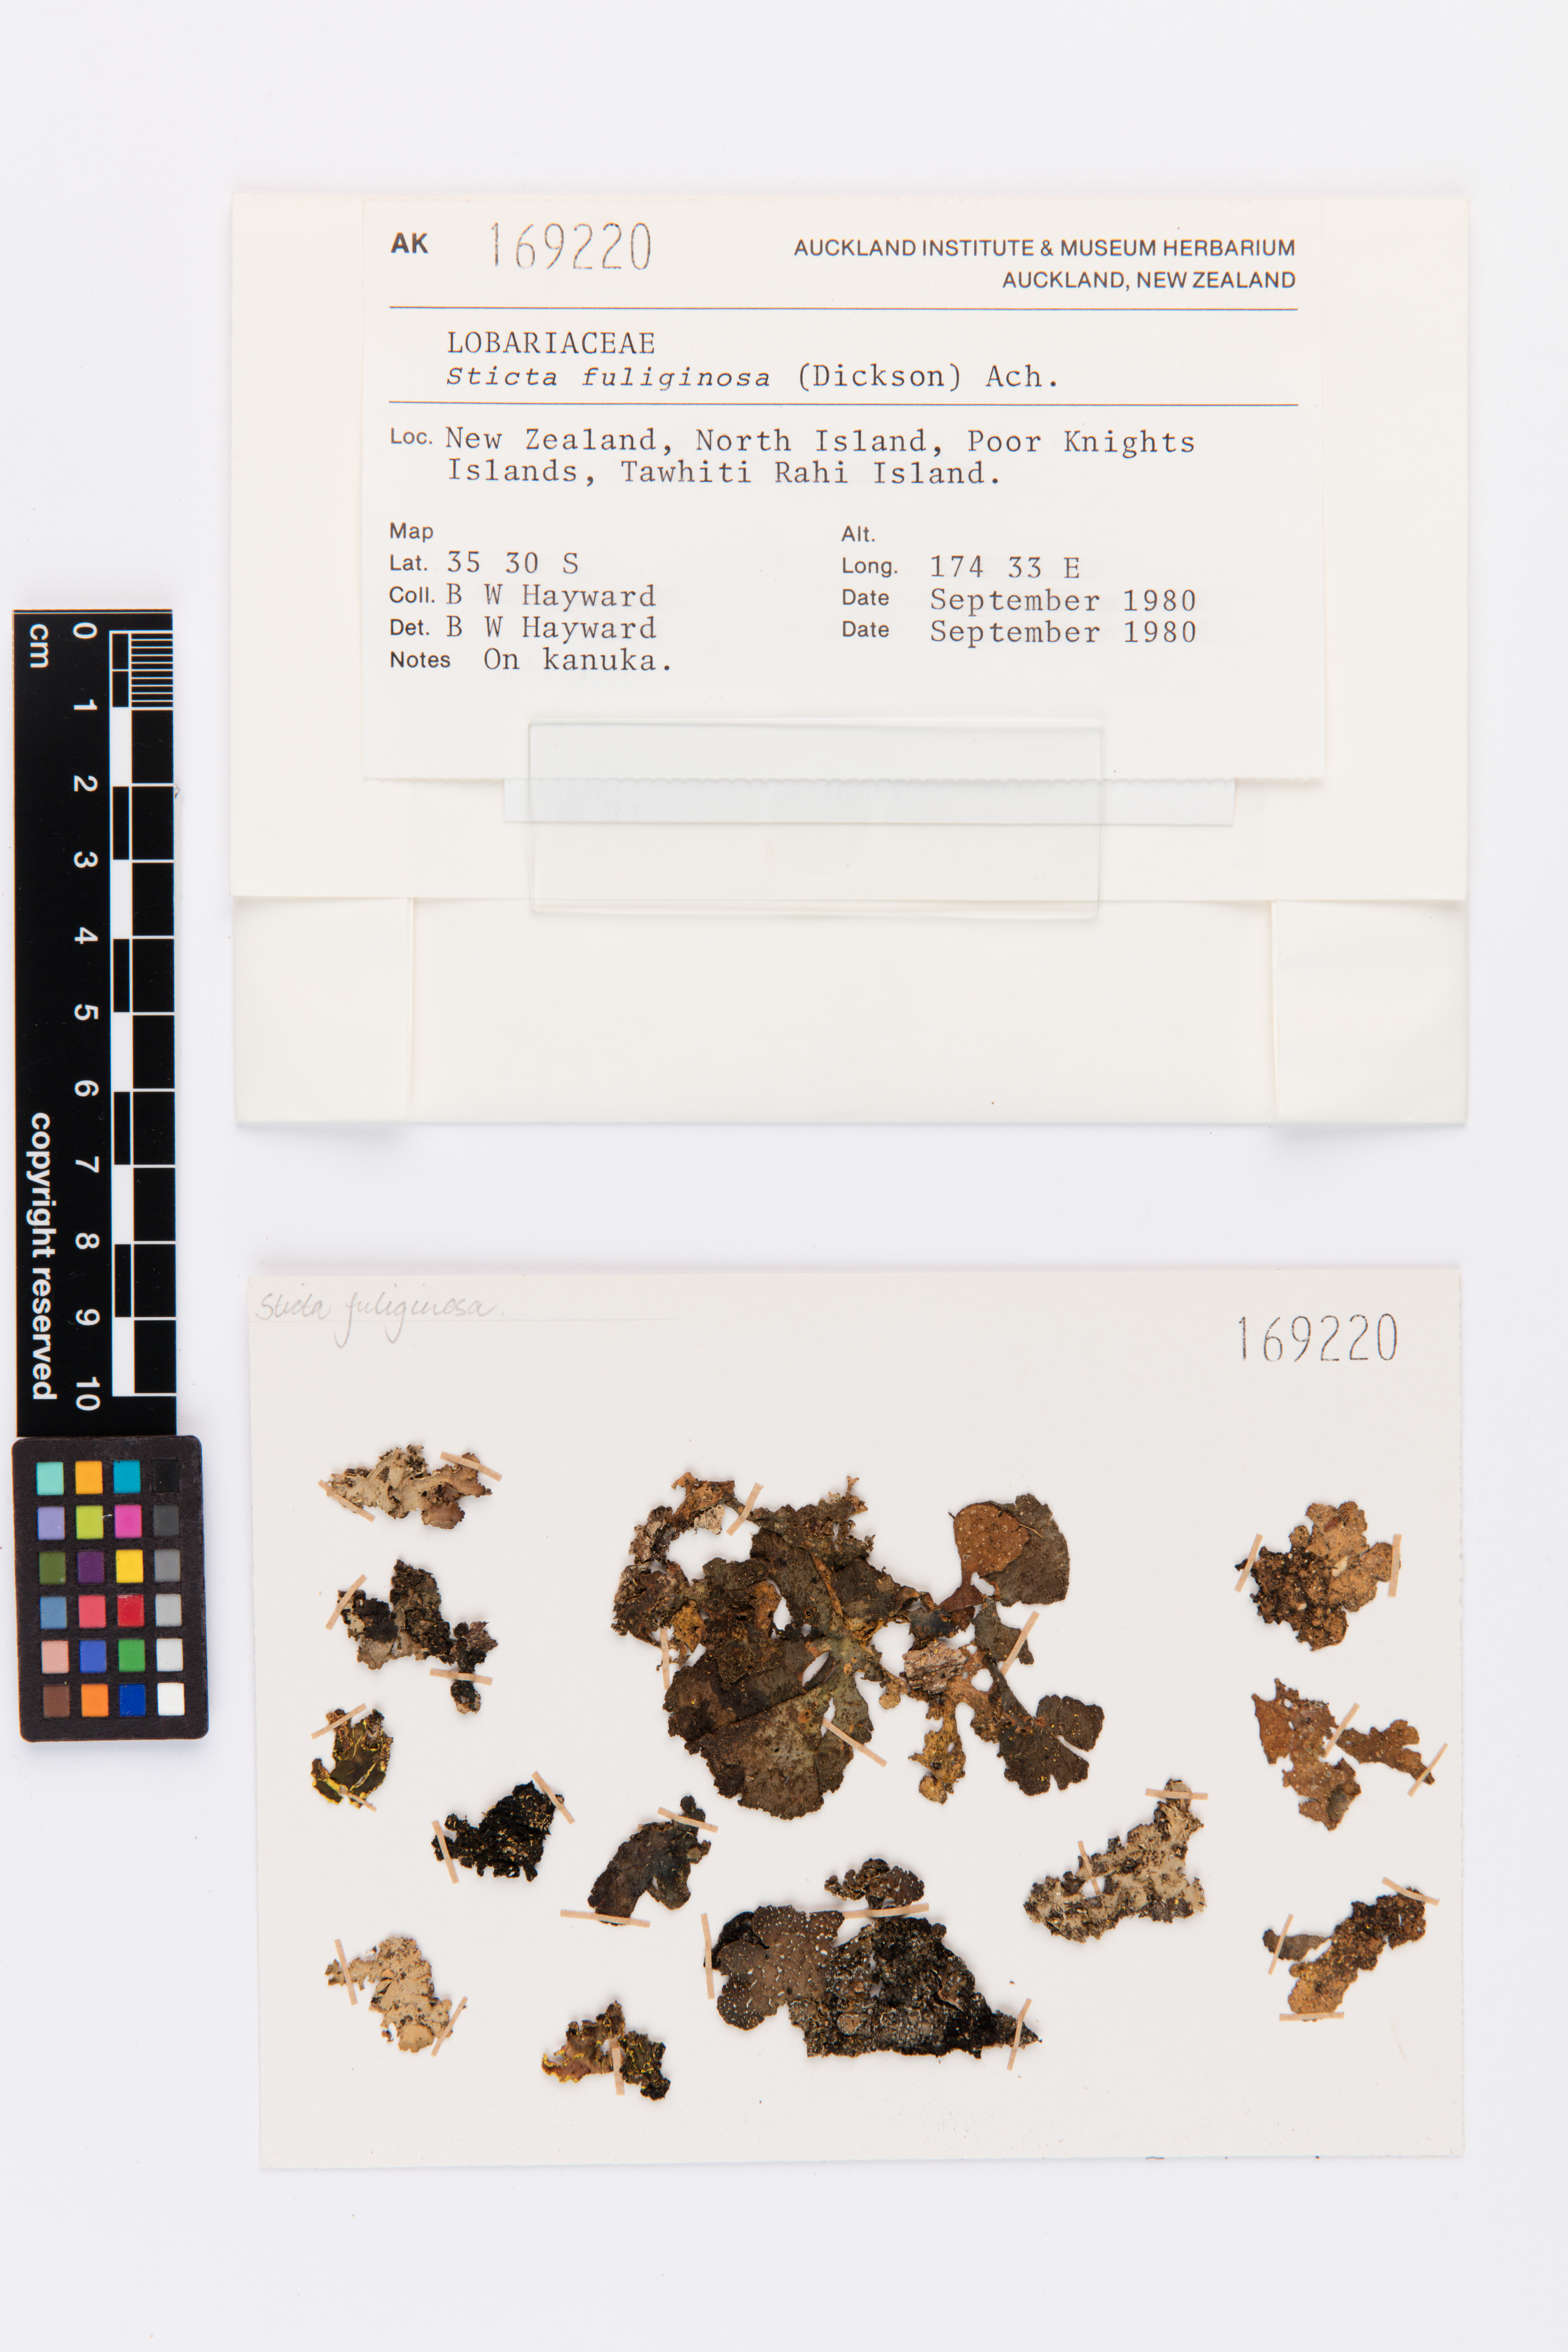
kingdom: Fungi
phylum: Ascomycota
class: Lecanoromycetes
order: Peltigerales
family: Lobariaceae
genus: Sticta
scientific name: Sticta fuliginosa
